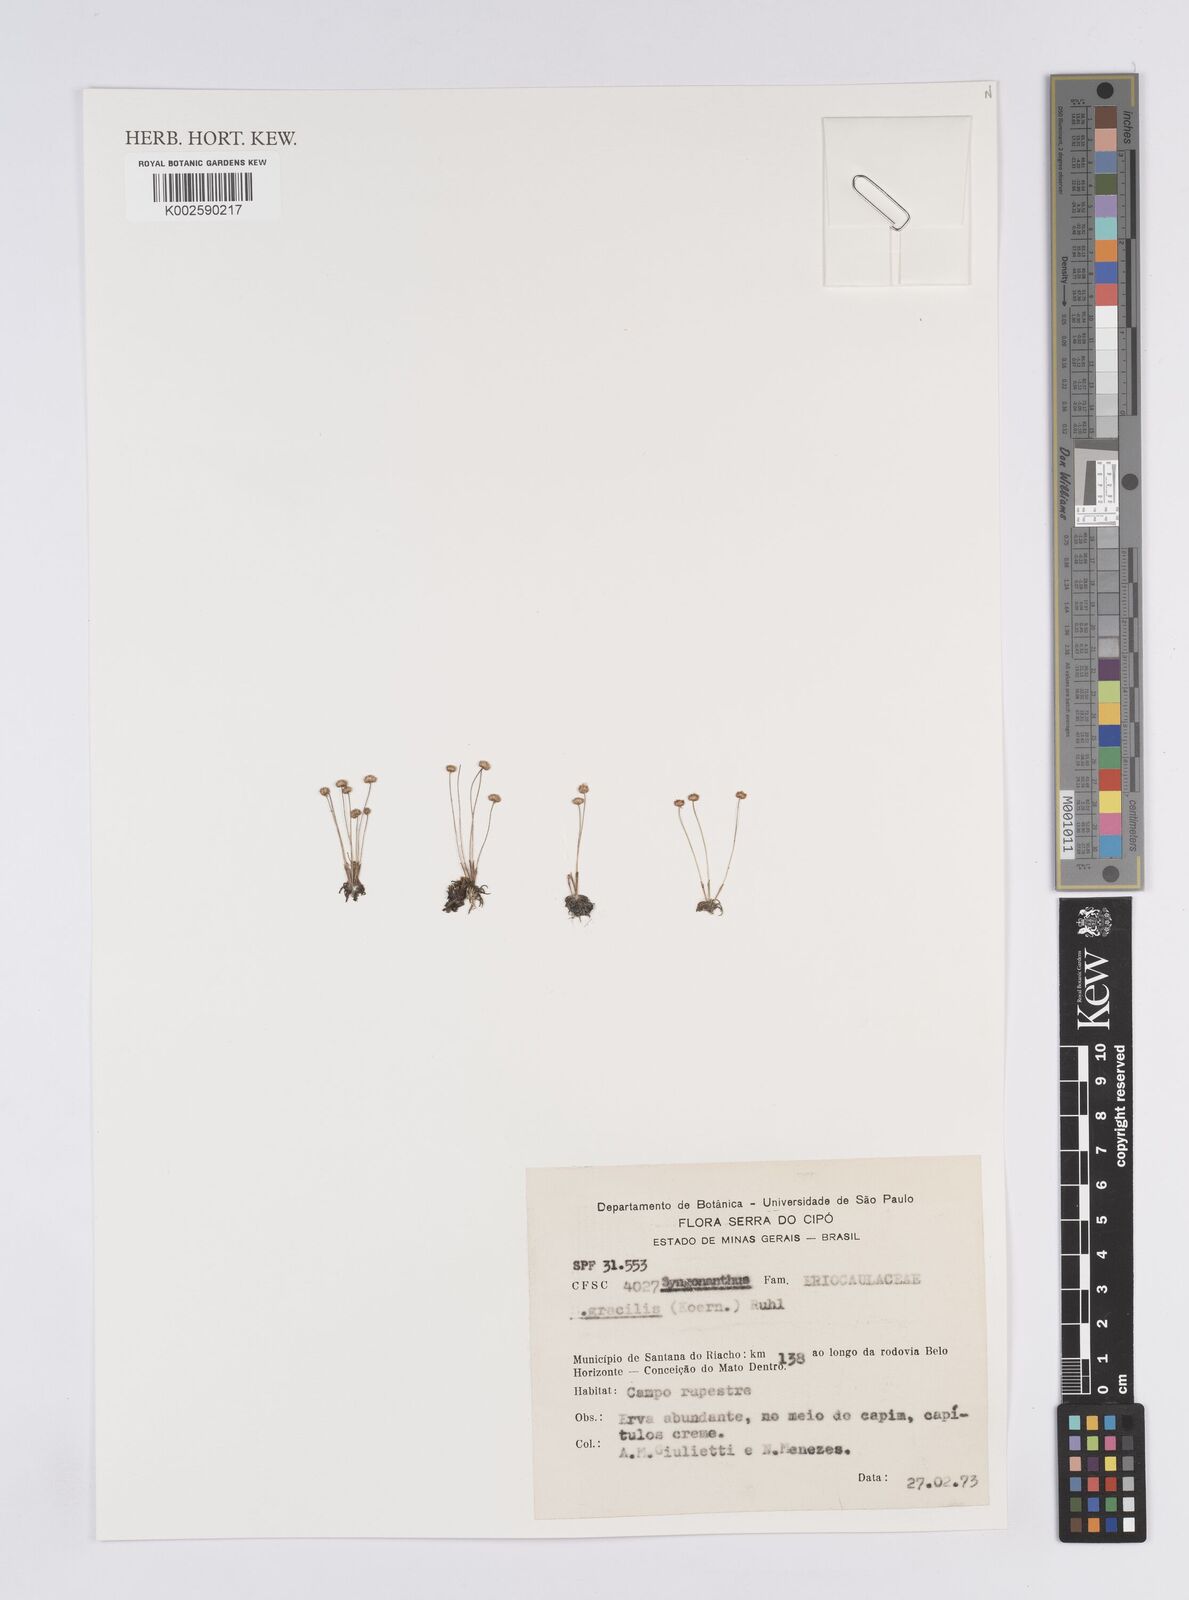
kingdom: Plantae
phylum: Tracheophyta
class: Liliopsida
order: Poales
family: Eriocaulaceae
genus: Syngonanthus
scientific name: Syngonanthus gracilis
